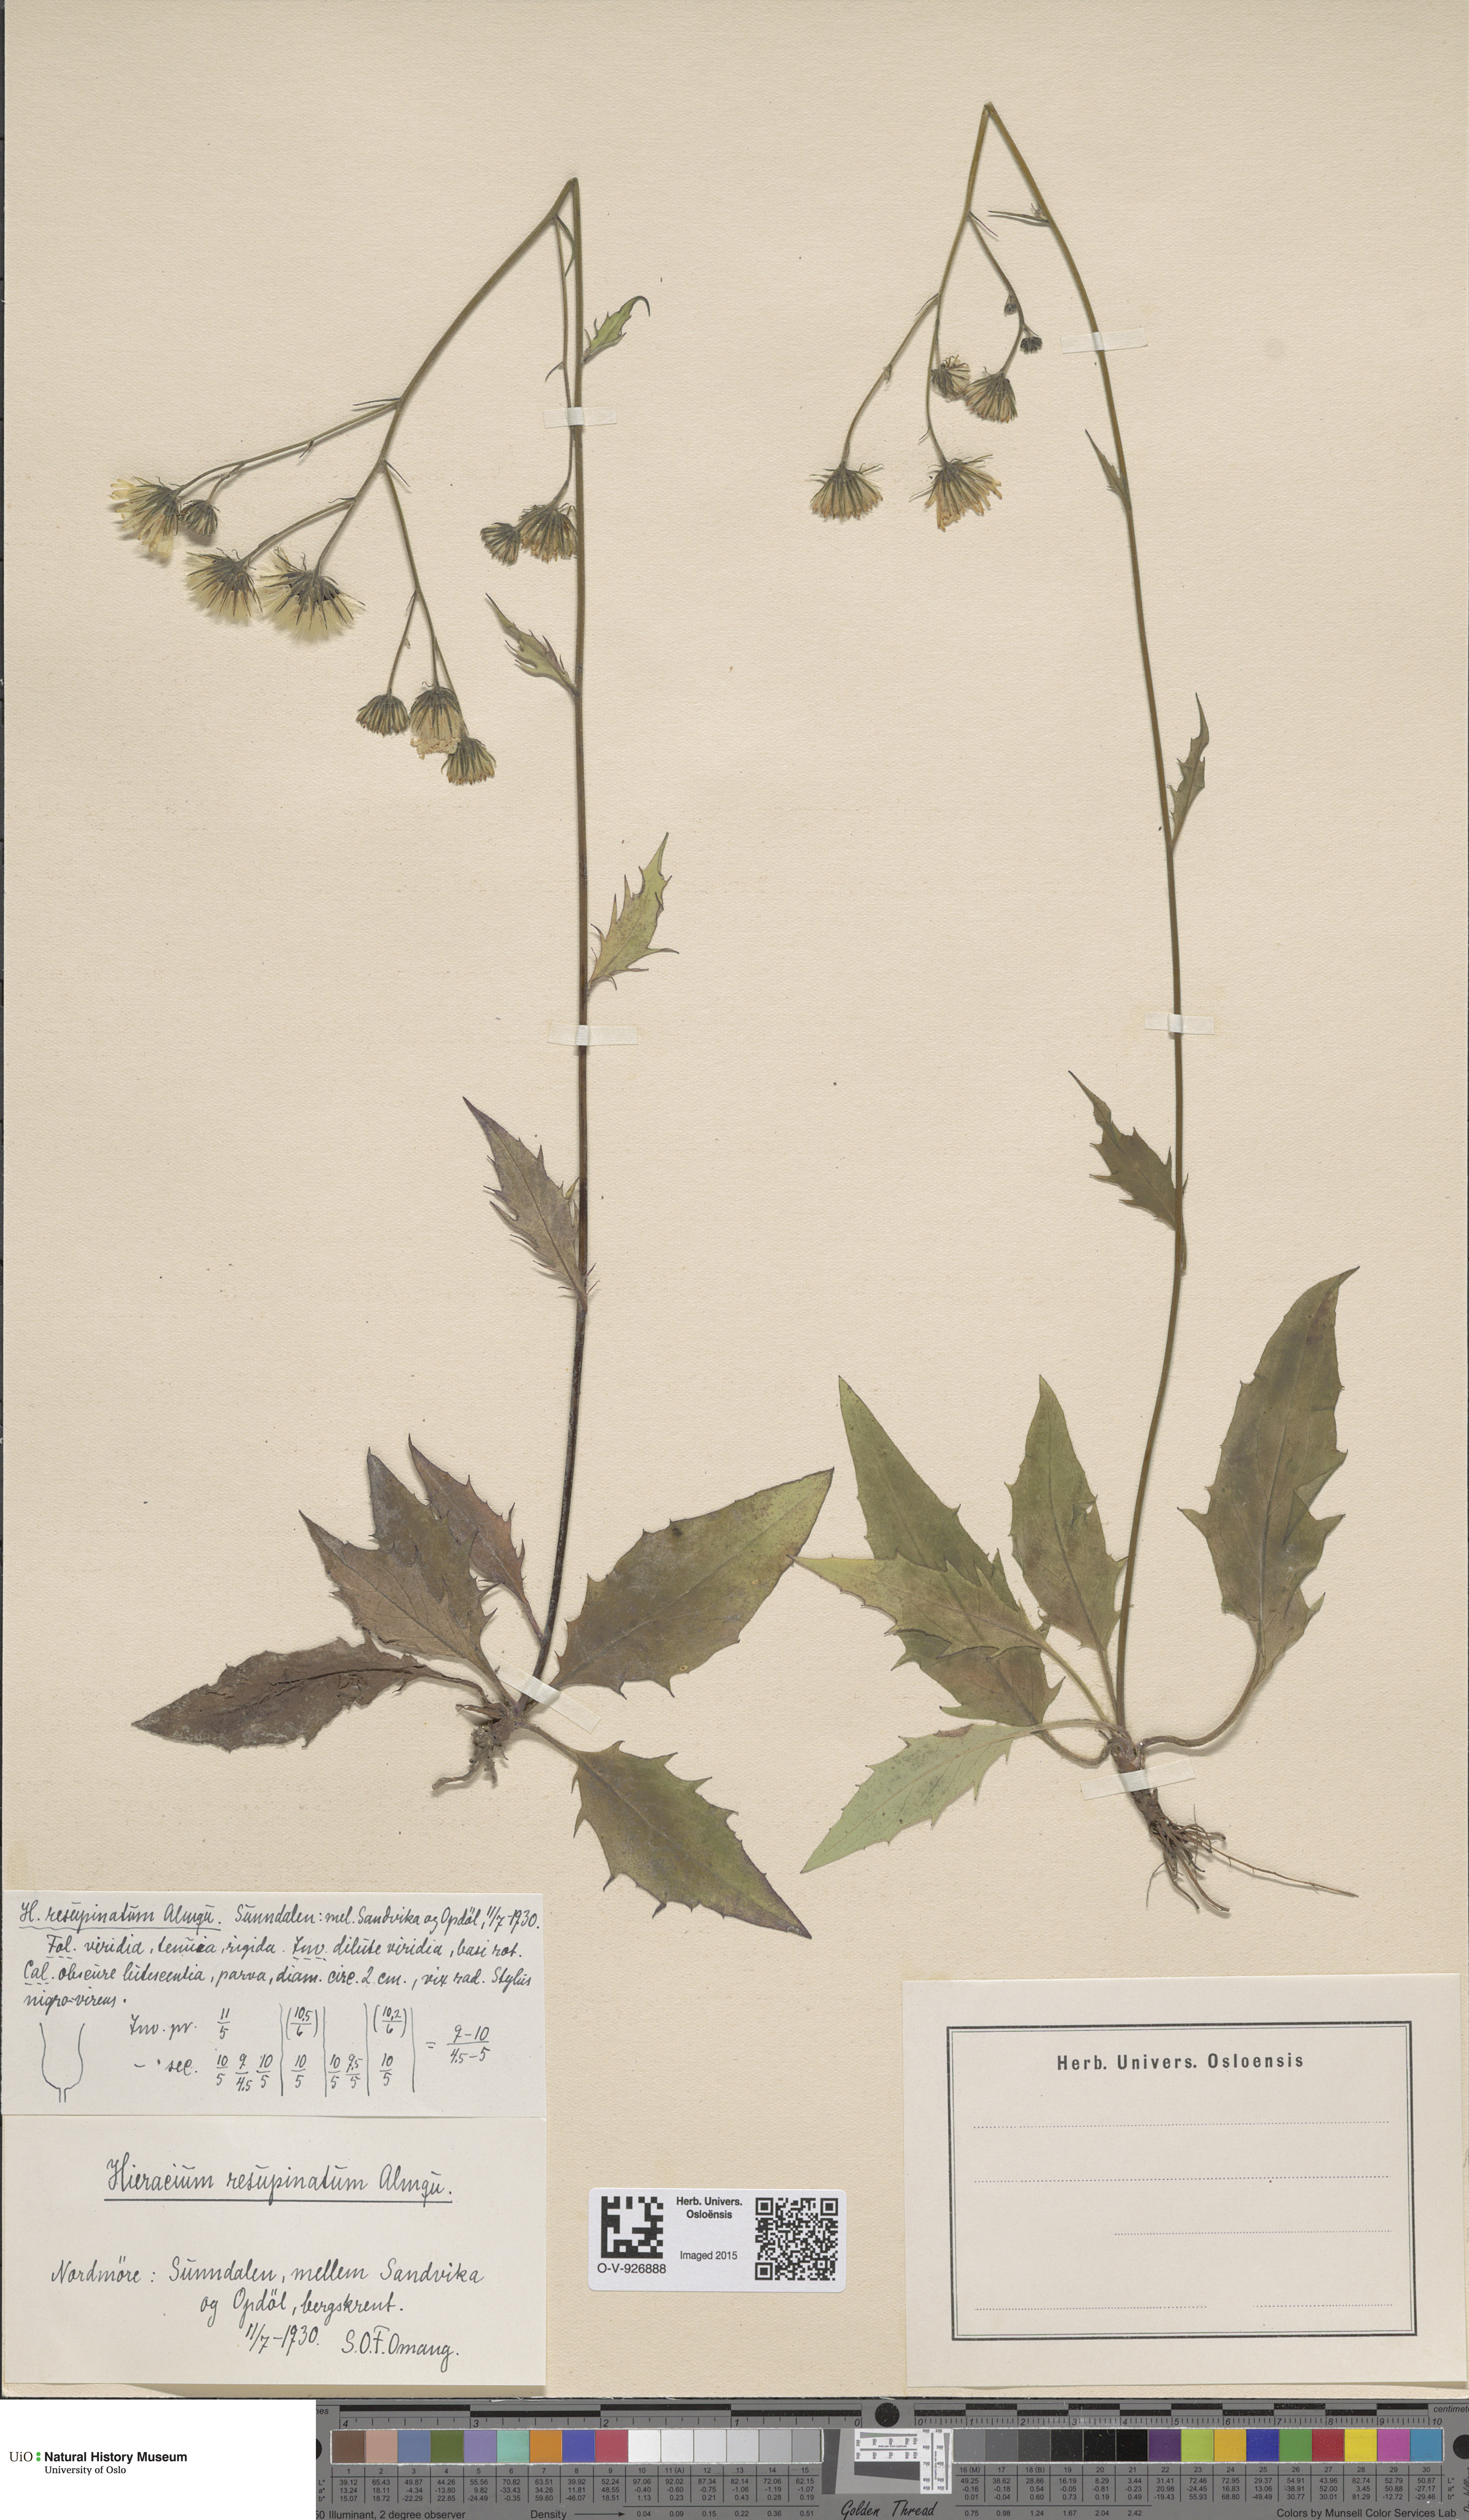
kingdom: Plantae
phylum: Tracheophyta
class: Magnoliopsida
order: Asterales
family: Asteraceae
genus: Hieracium
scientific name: Hieracium resupinatum
